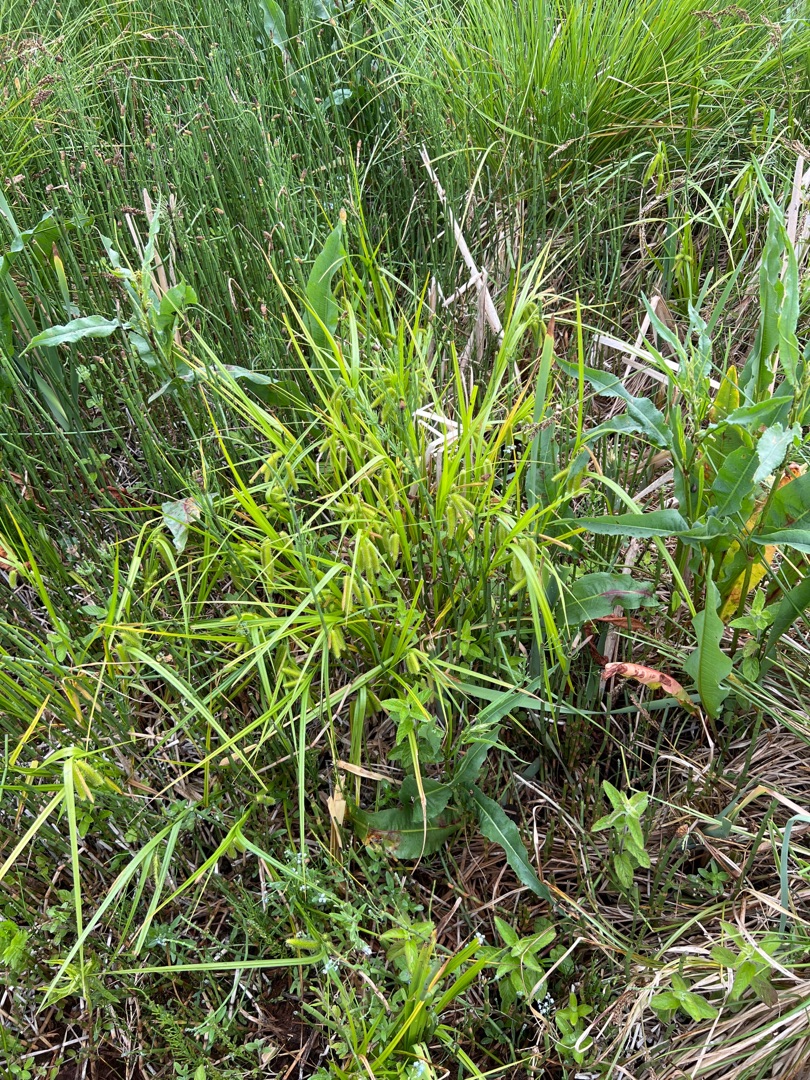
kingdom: Plantae
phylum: Tracheophyta
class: Liliopsida
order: Poales
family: Cyperaceae
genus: Carex
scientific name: Carex pseudocyperus
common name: Knippe-star
